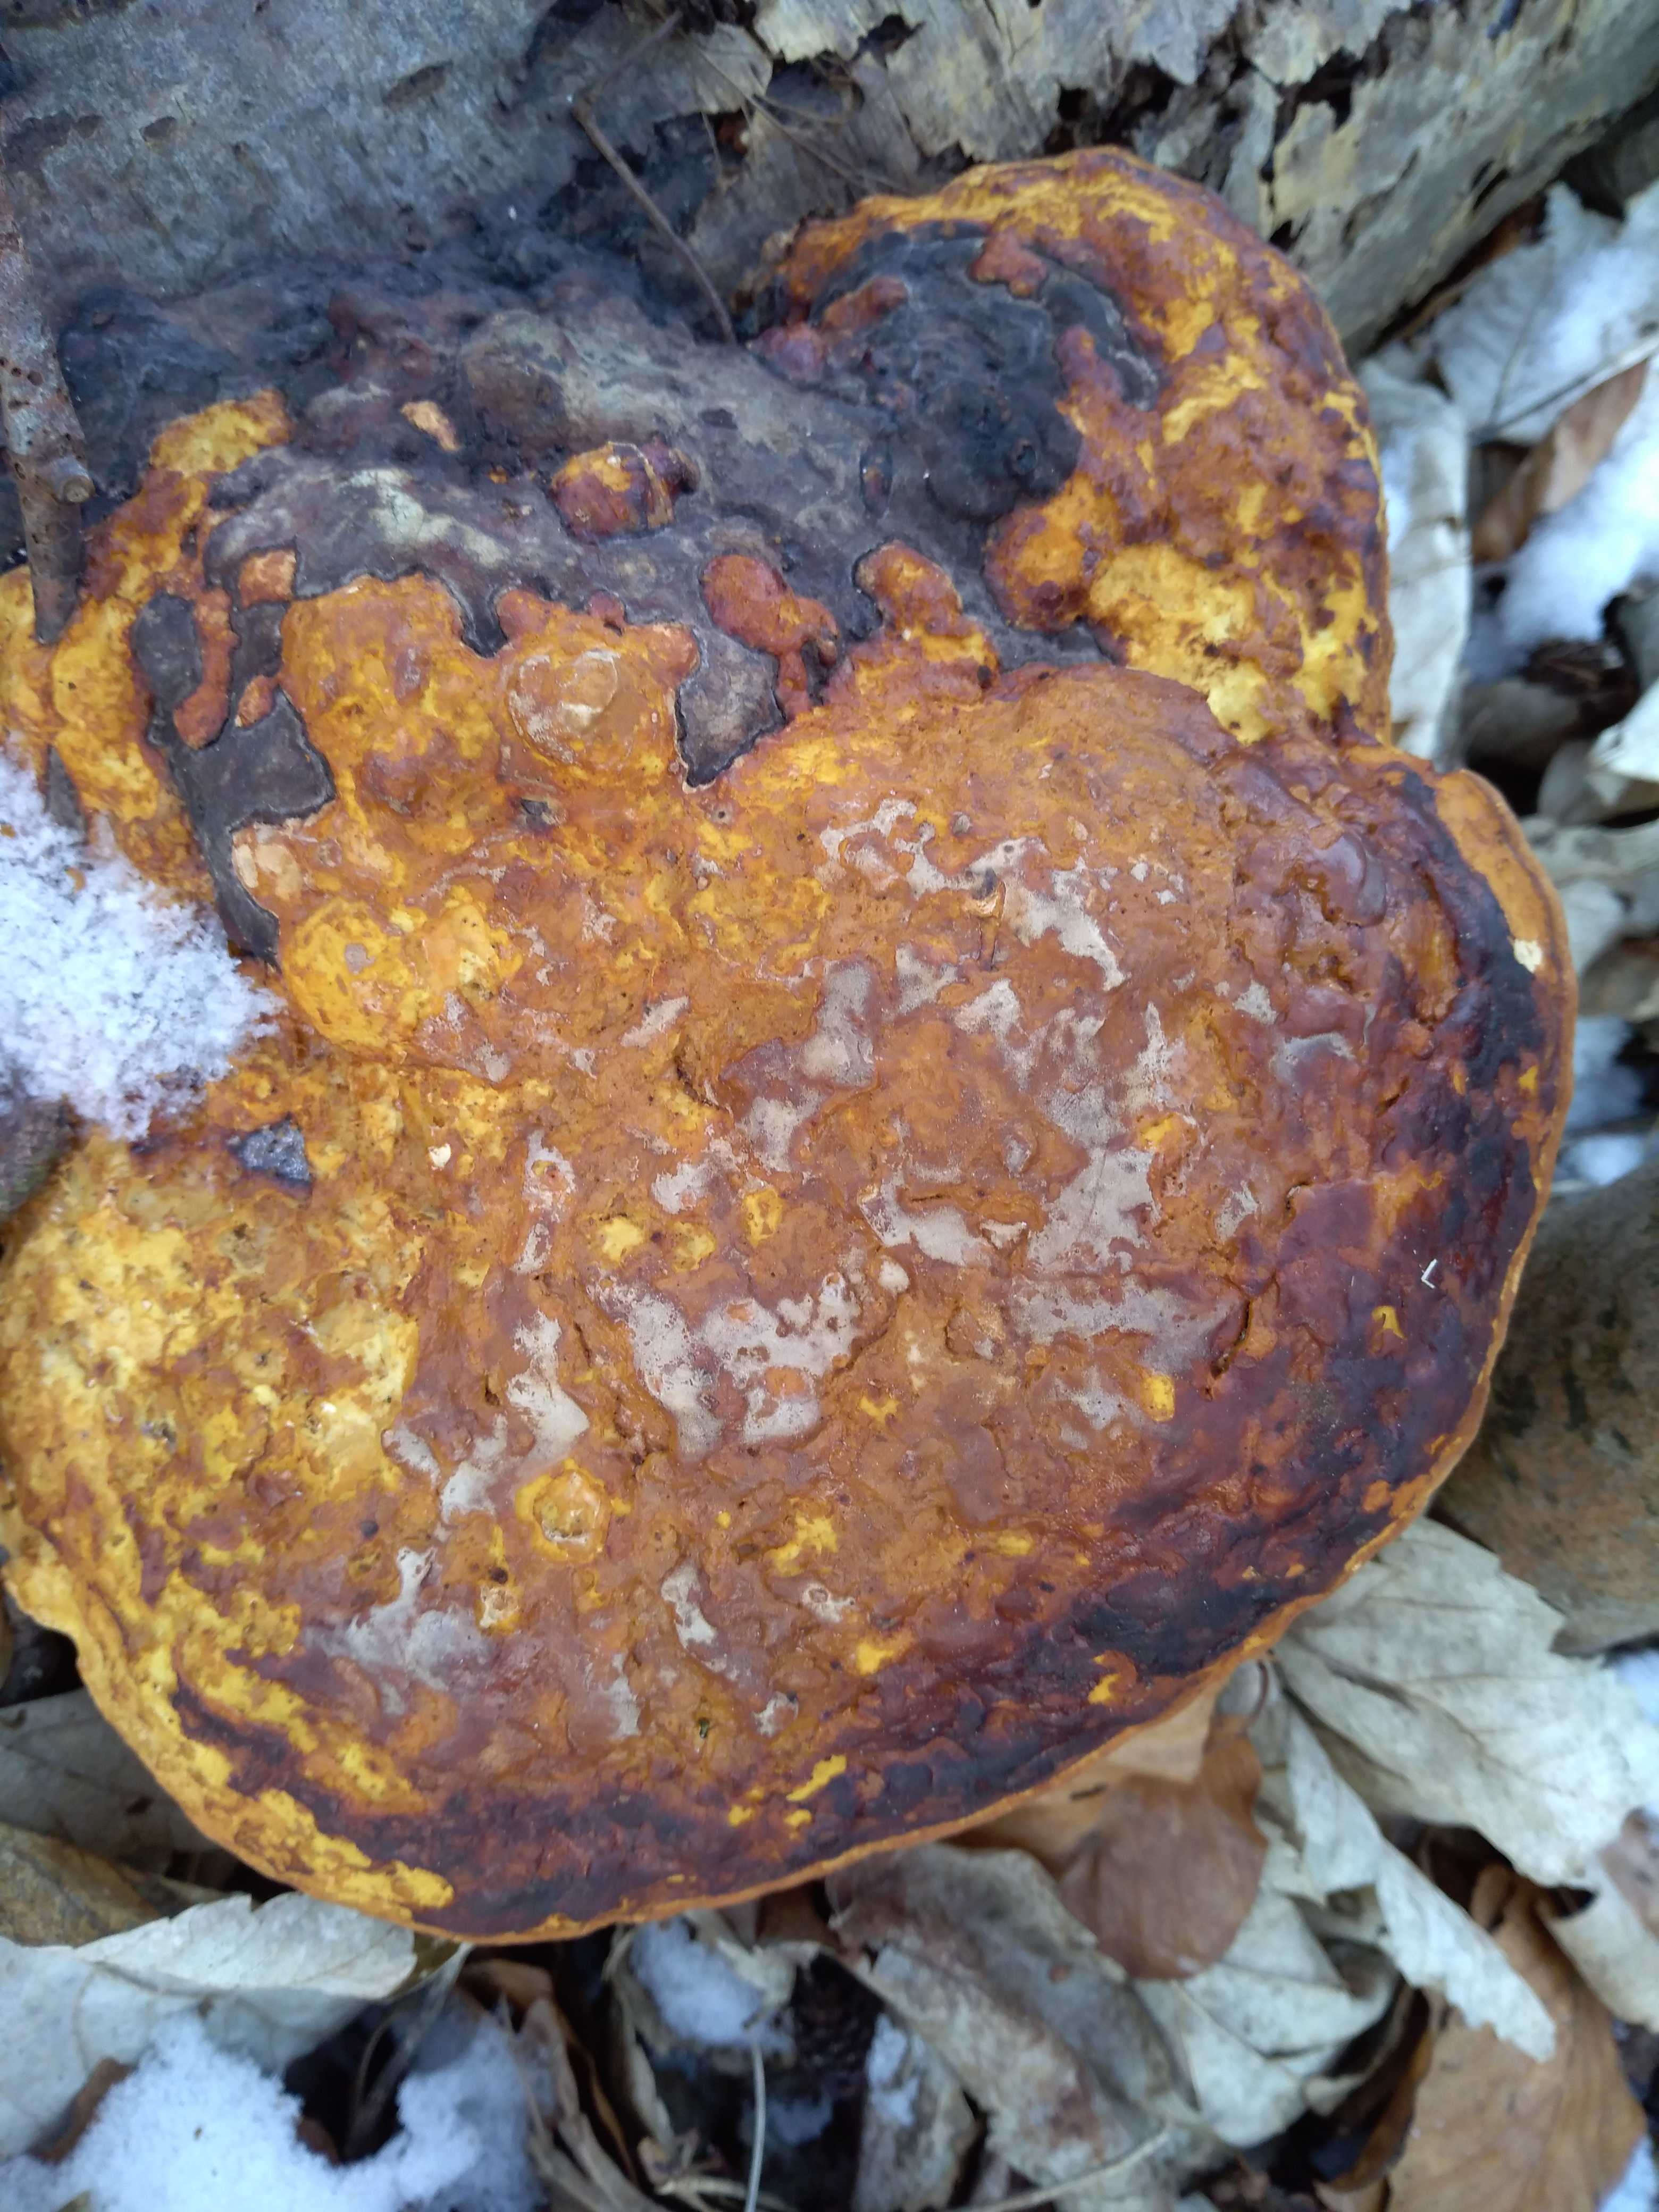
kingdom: Fungi
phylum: Basidiomycota
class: Agaricomycetes
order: Polyporales
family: Fomitopsidaceae
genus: Fomitopsis
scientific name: Fomitopsis pinicola
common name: randbæltet hovporesvamp
